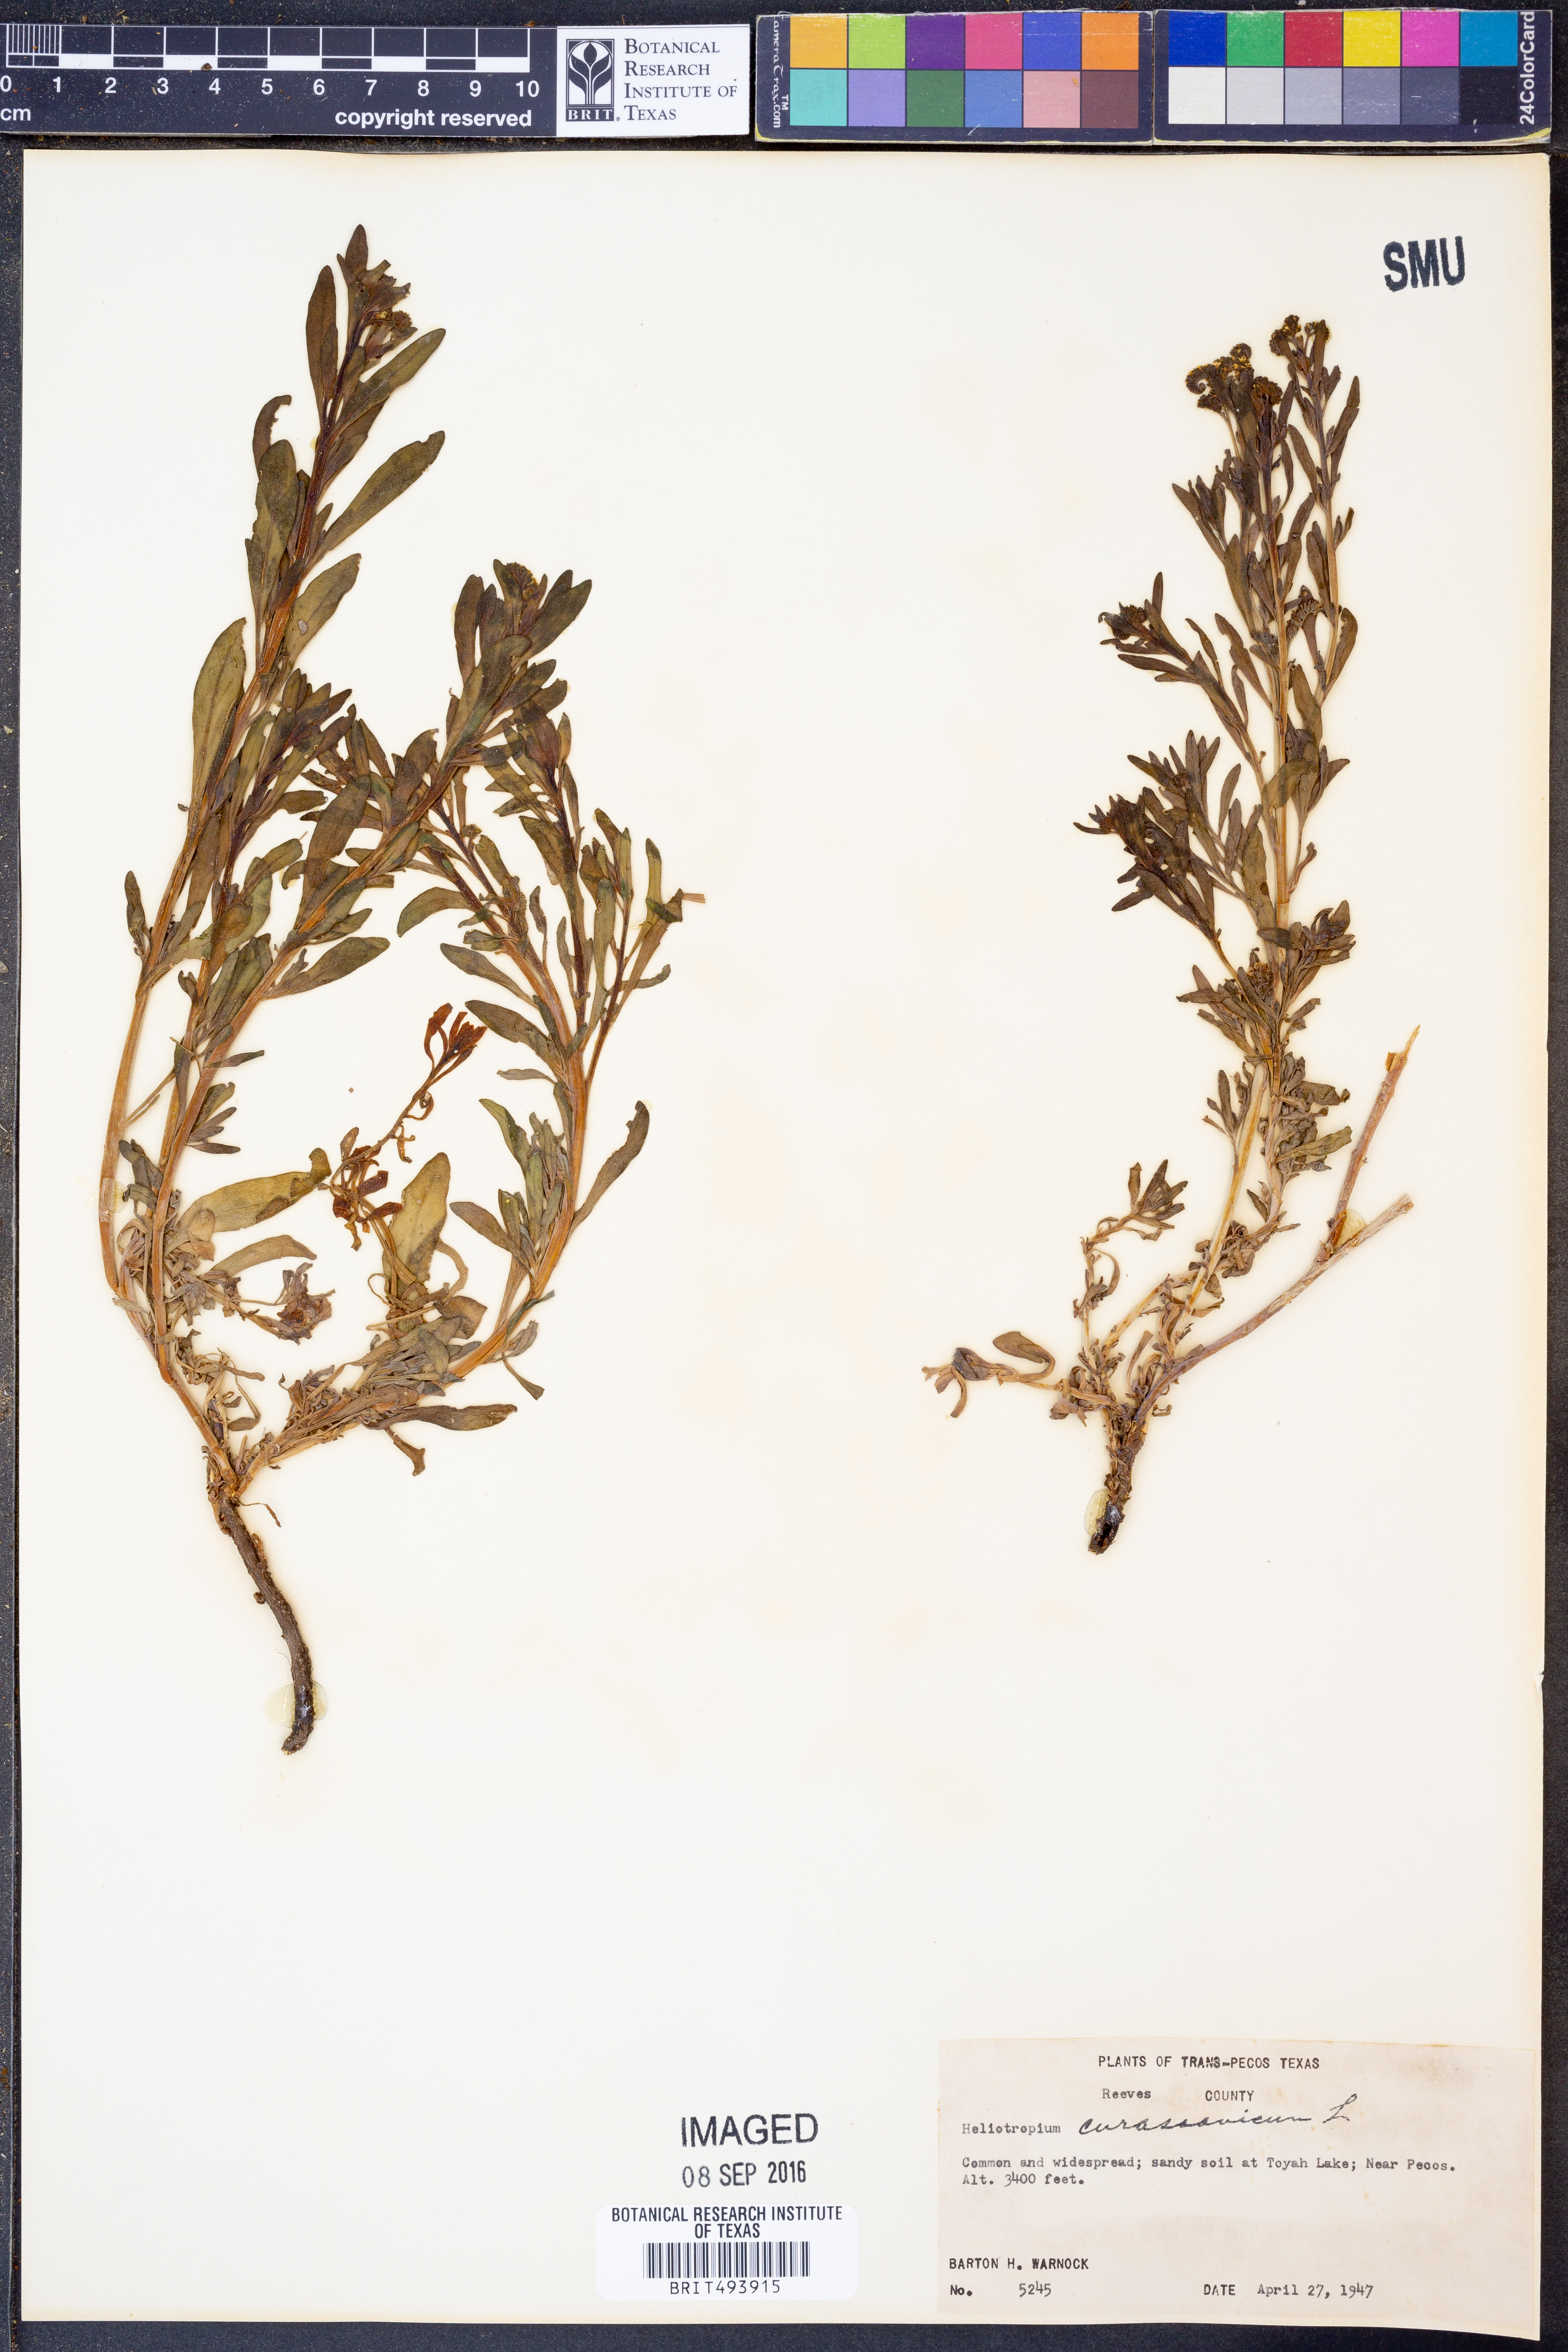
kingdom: Plantae
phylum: Tracheophyta
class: Magnoliopsida
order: Boraginales
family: Heliotropiaceae
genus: Heliotropium
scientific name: Heliotropium curassavicum
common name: Seaside heliotrope
